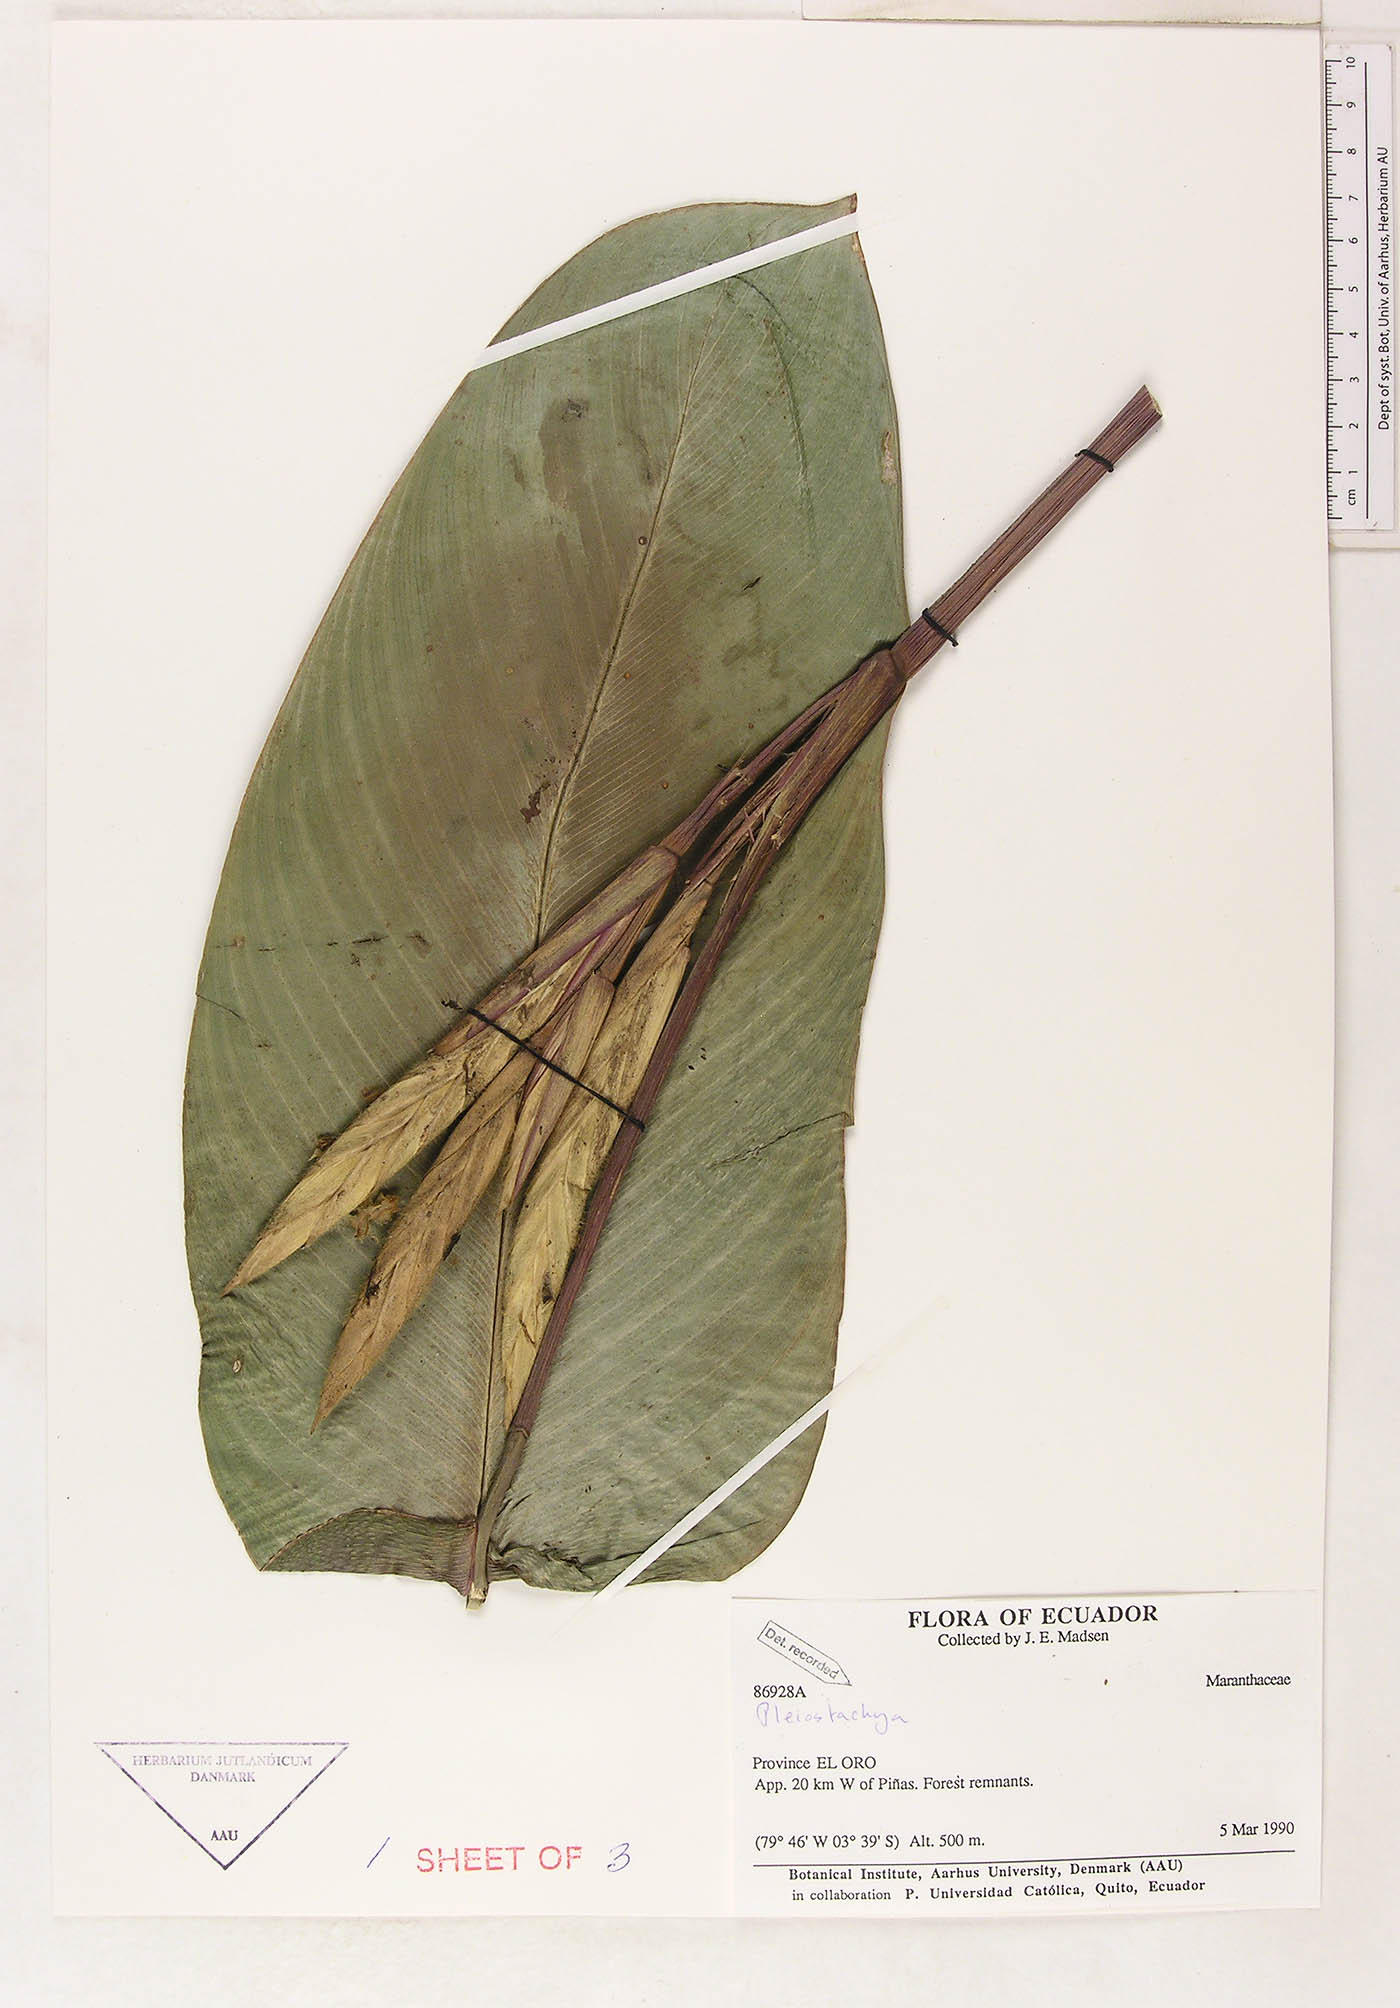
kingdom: Plantae
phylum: Tracheophyta
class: Liliopsida
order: Zingiberales
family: Marantaceae
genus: Pleiostachya
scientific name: Pleiostachya
